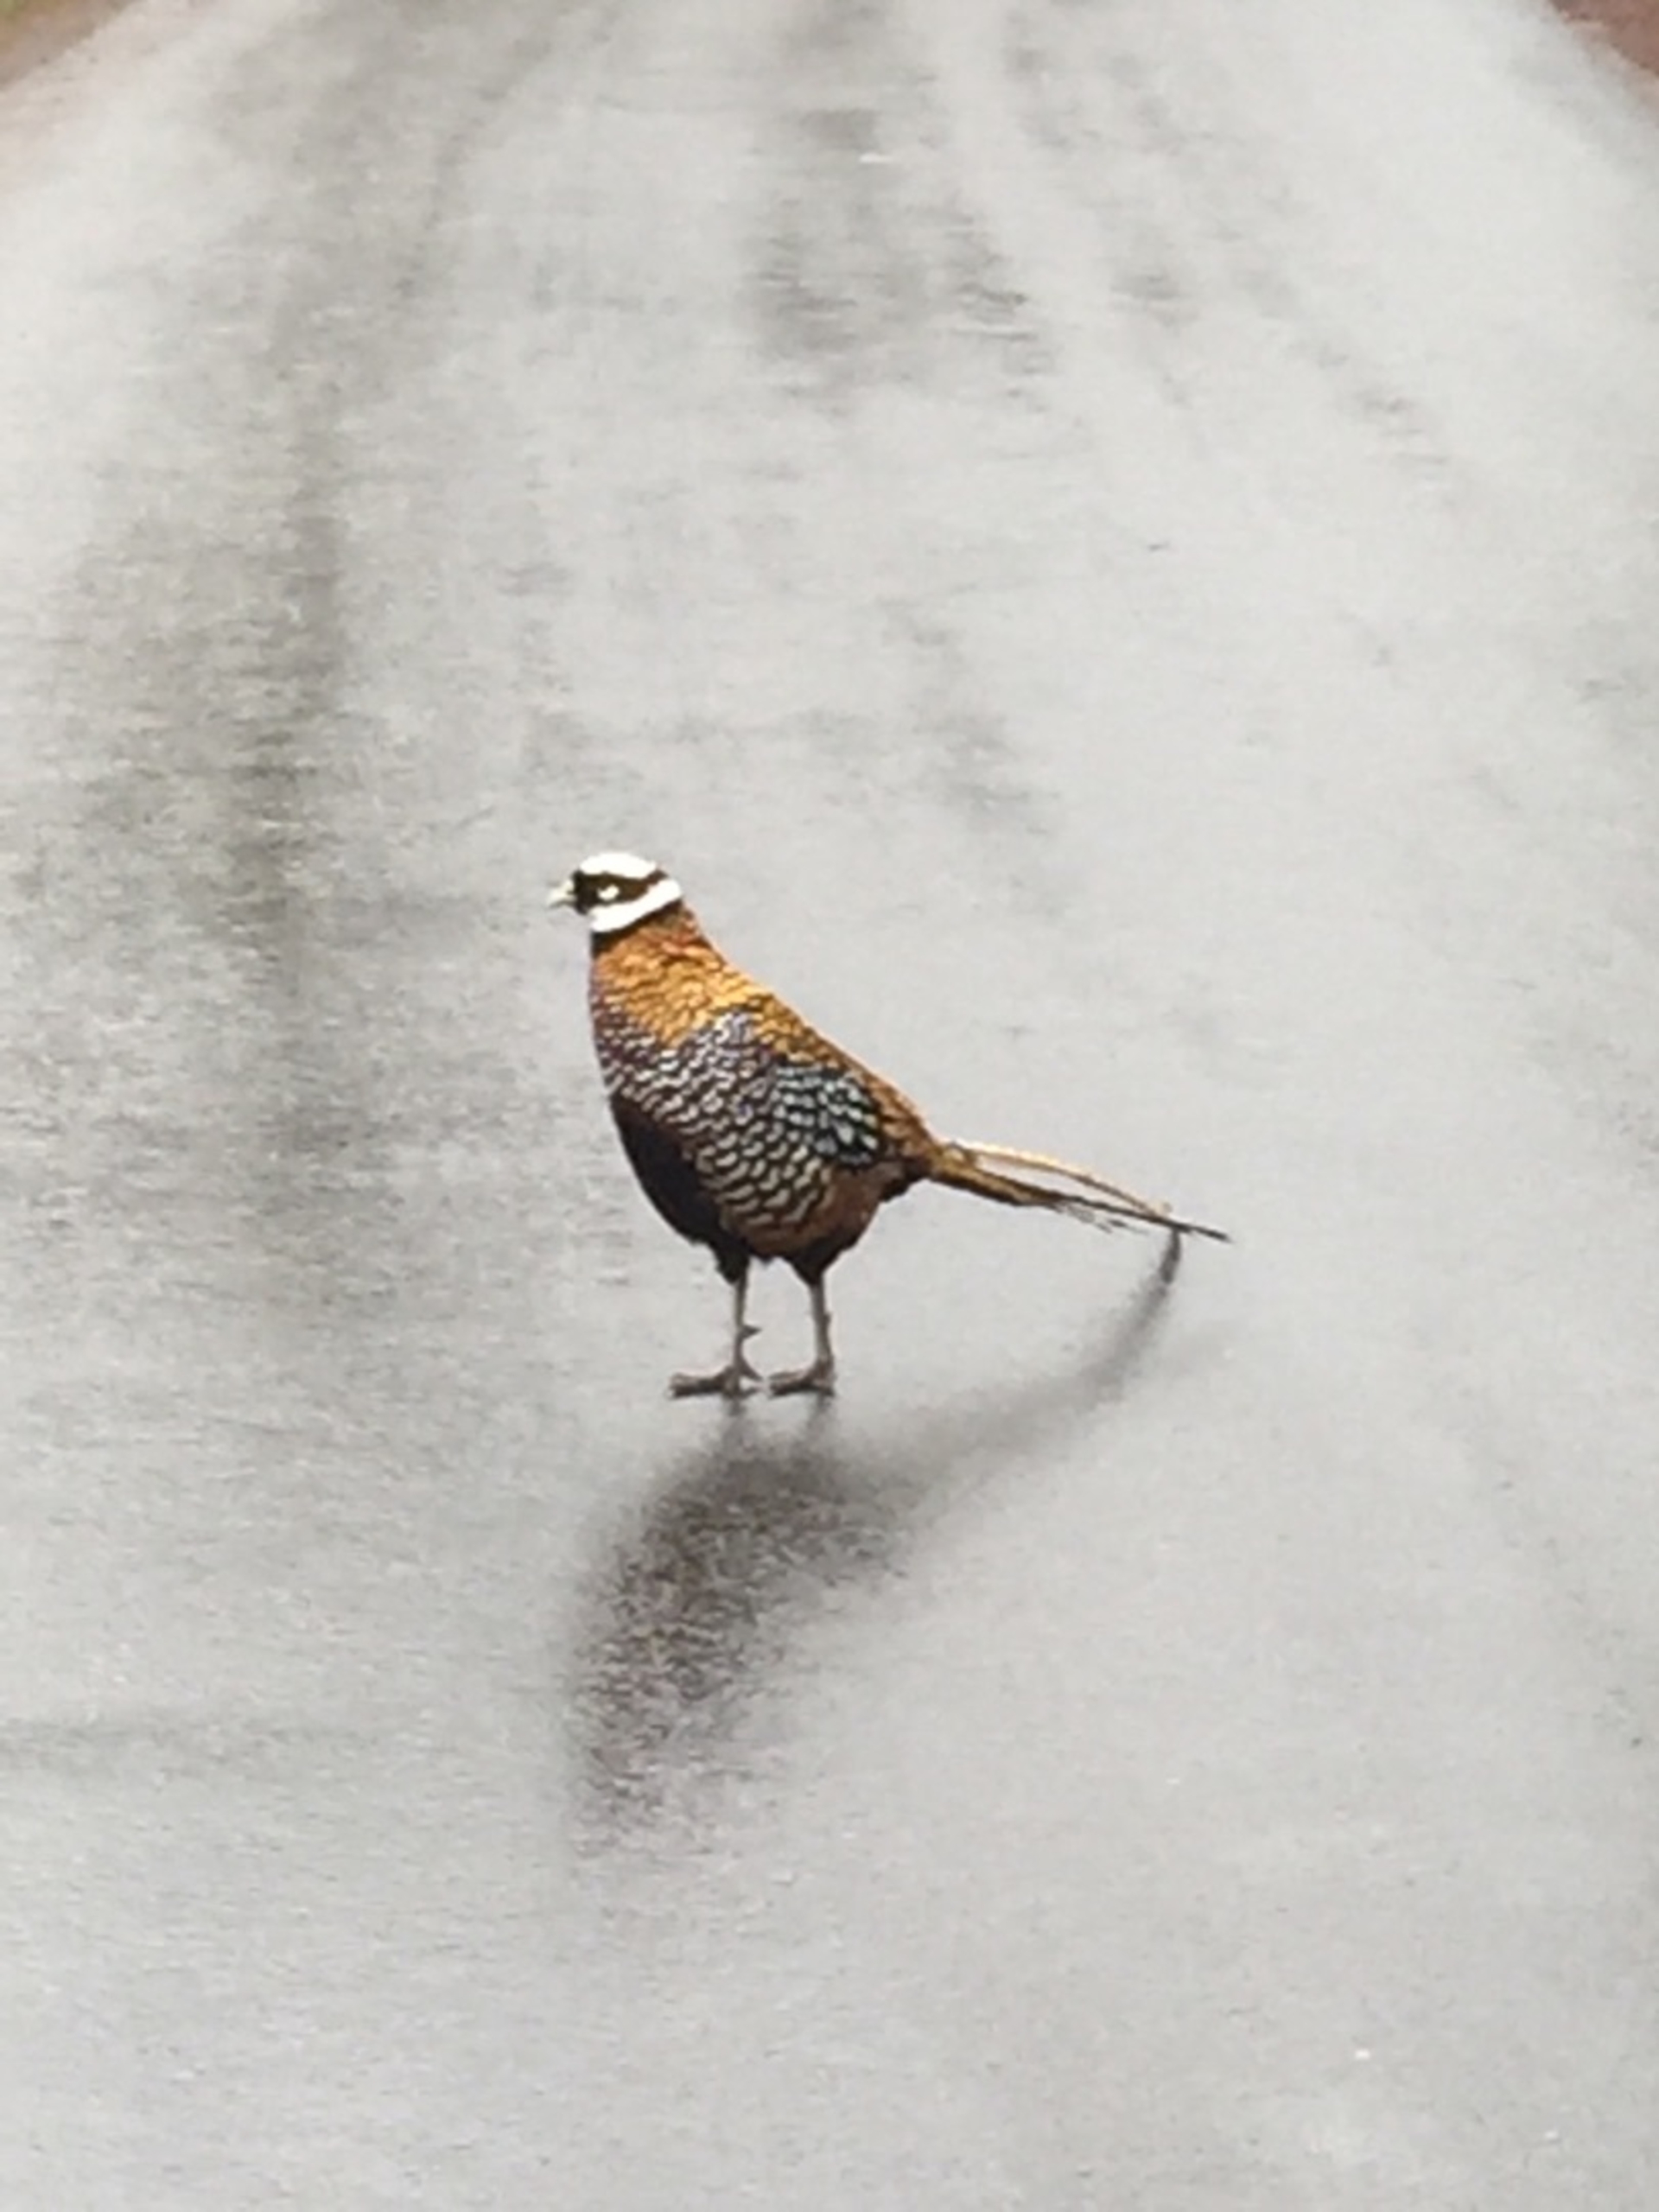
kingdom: Animalia
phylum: Chordata
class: Aves
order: Galliformes
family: Phasianidae
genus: Syrmaticus
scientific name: Syrmaticus reevesii
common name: Kongefasan
